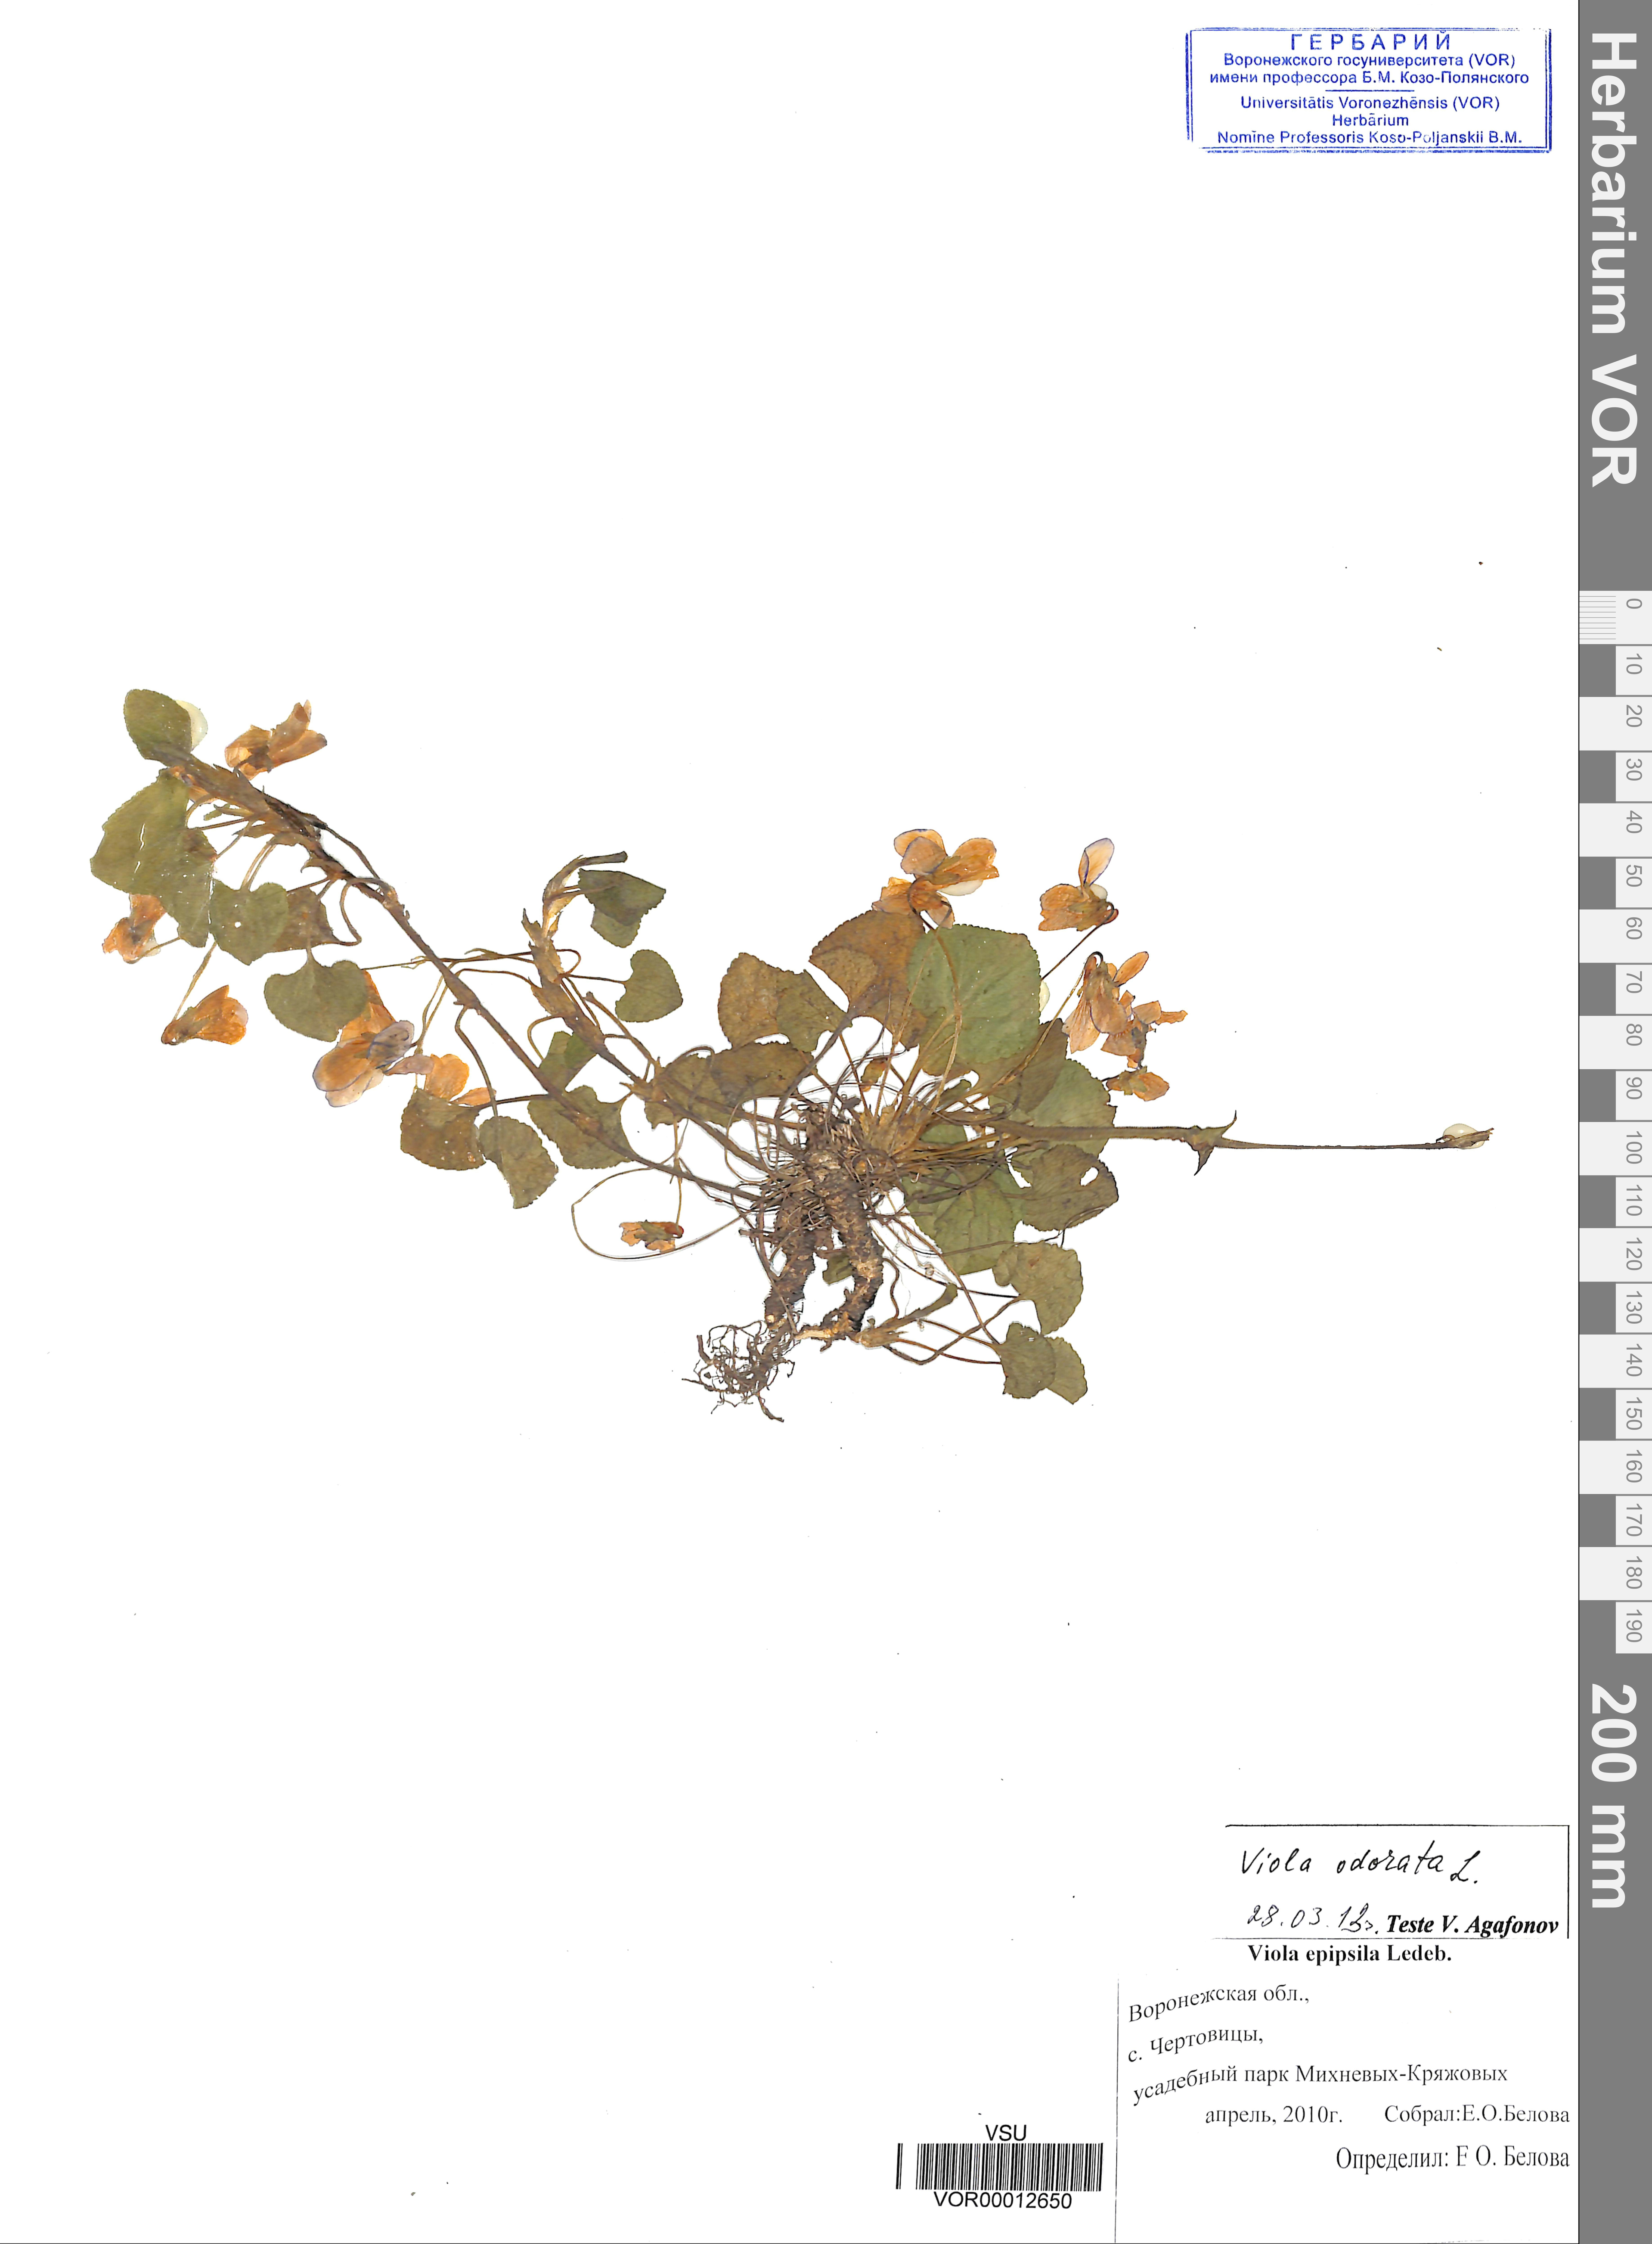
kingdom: Plantae
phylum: Tracheophyta
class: Magnoliopsida
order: Malpighiales
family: Violaceae
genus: Viola
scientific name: Viola odorata
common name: Sweet violet
